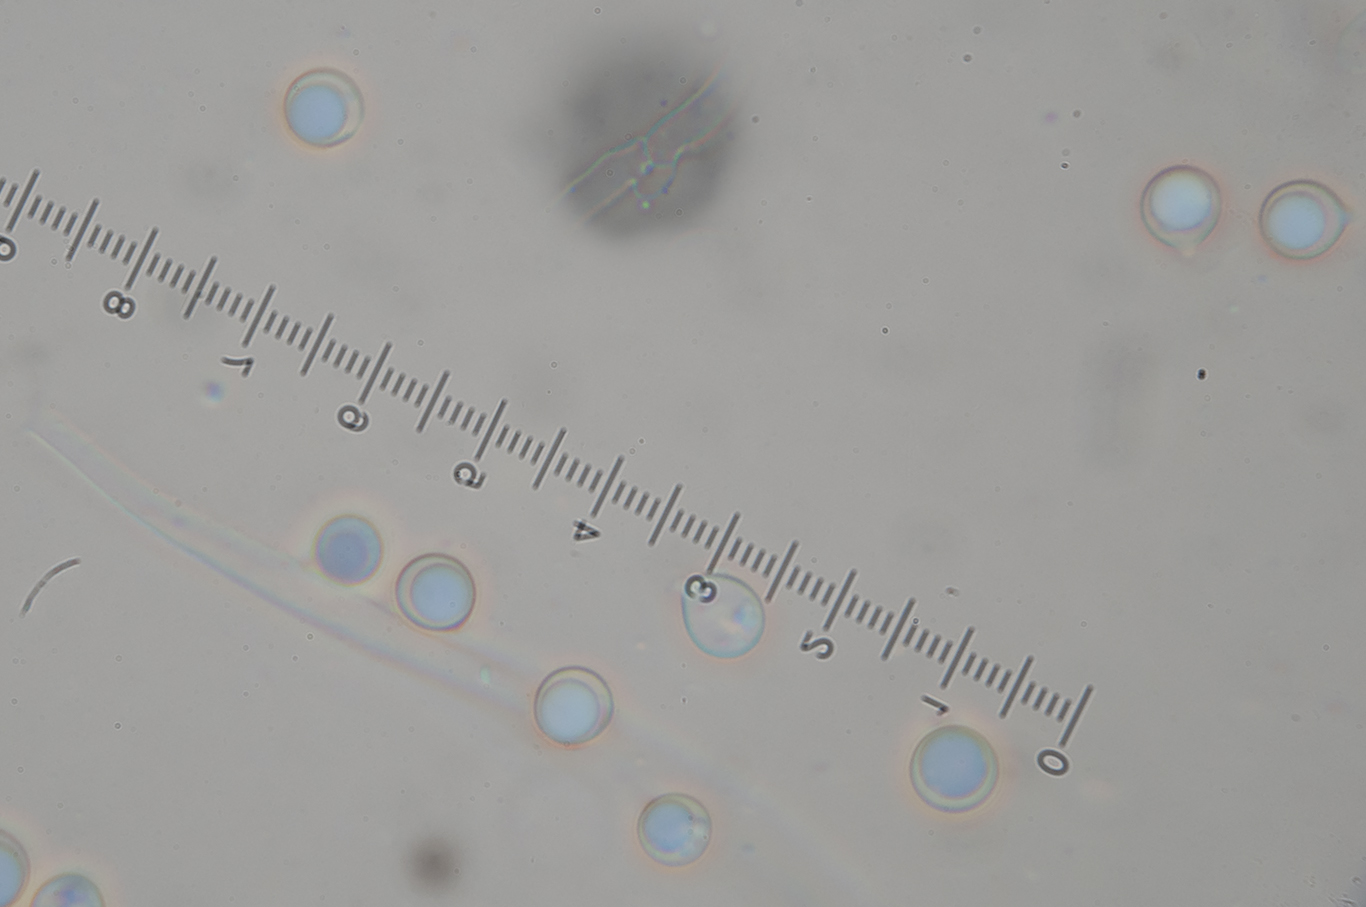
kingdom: Fungi
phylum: Basidiomycota
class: Agaricomycetes
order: Agaricales
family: Clavariaceae
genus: Clavulinopsis
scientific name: Clavulinopsis umbrinella
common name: gulgrå køllesvamp
